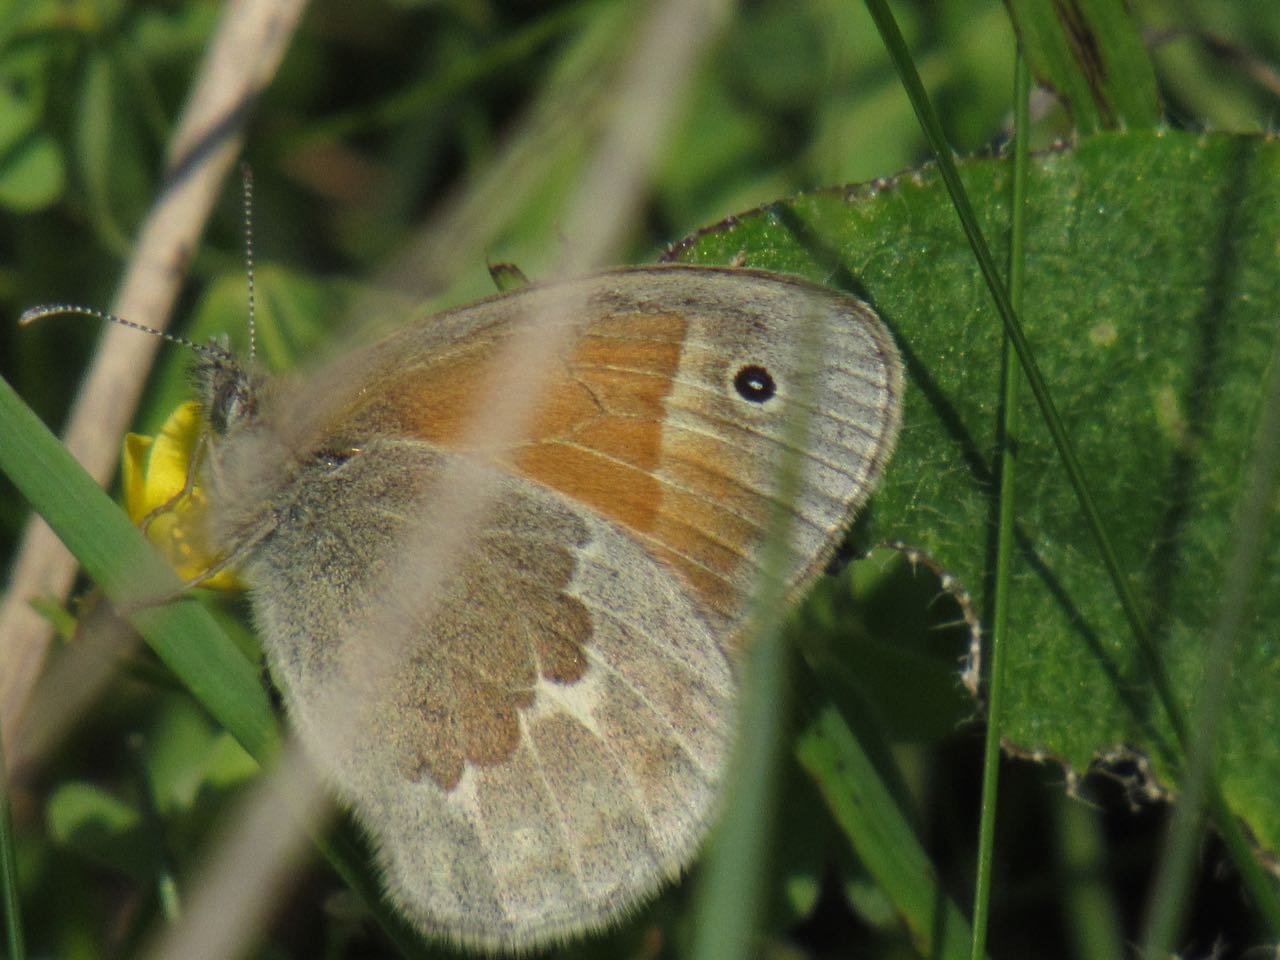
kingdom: Animalia
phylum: Arthropoda
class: Insecta
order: Lepidoptera
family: Nymphalidae
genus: Coenonympha
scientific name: Coenonympha tullia
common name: Large Heath
